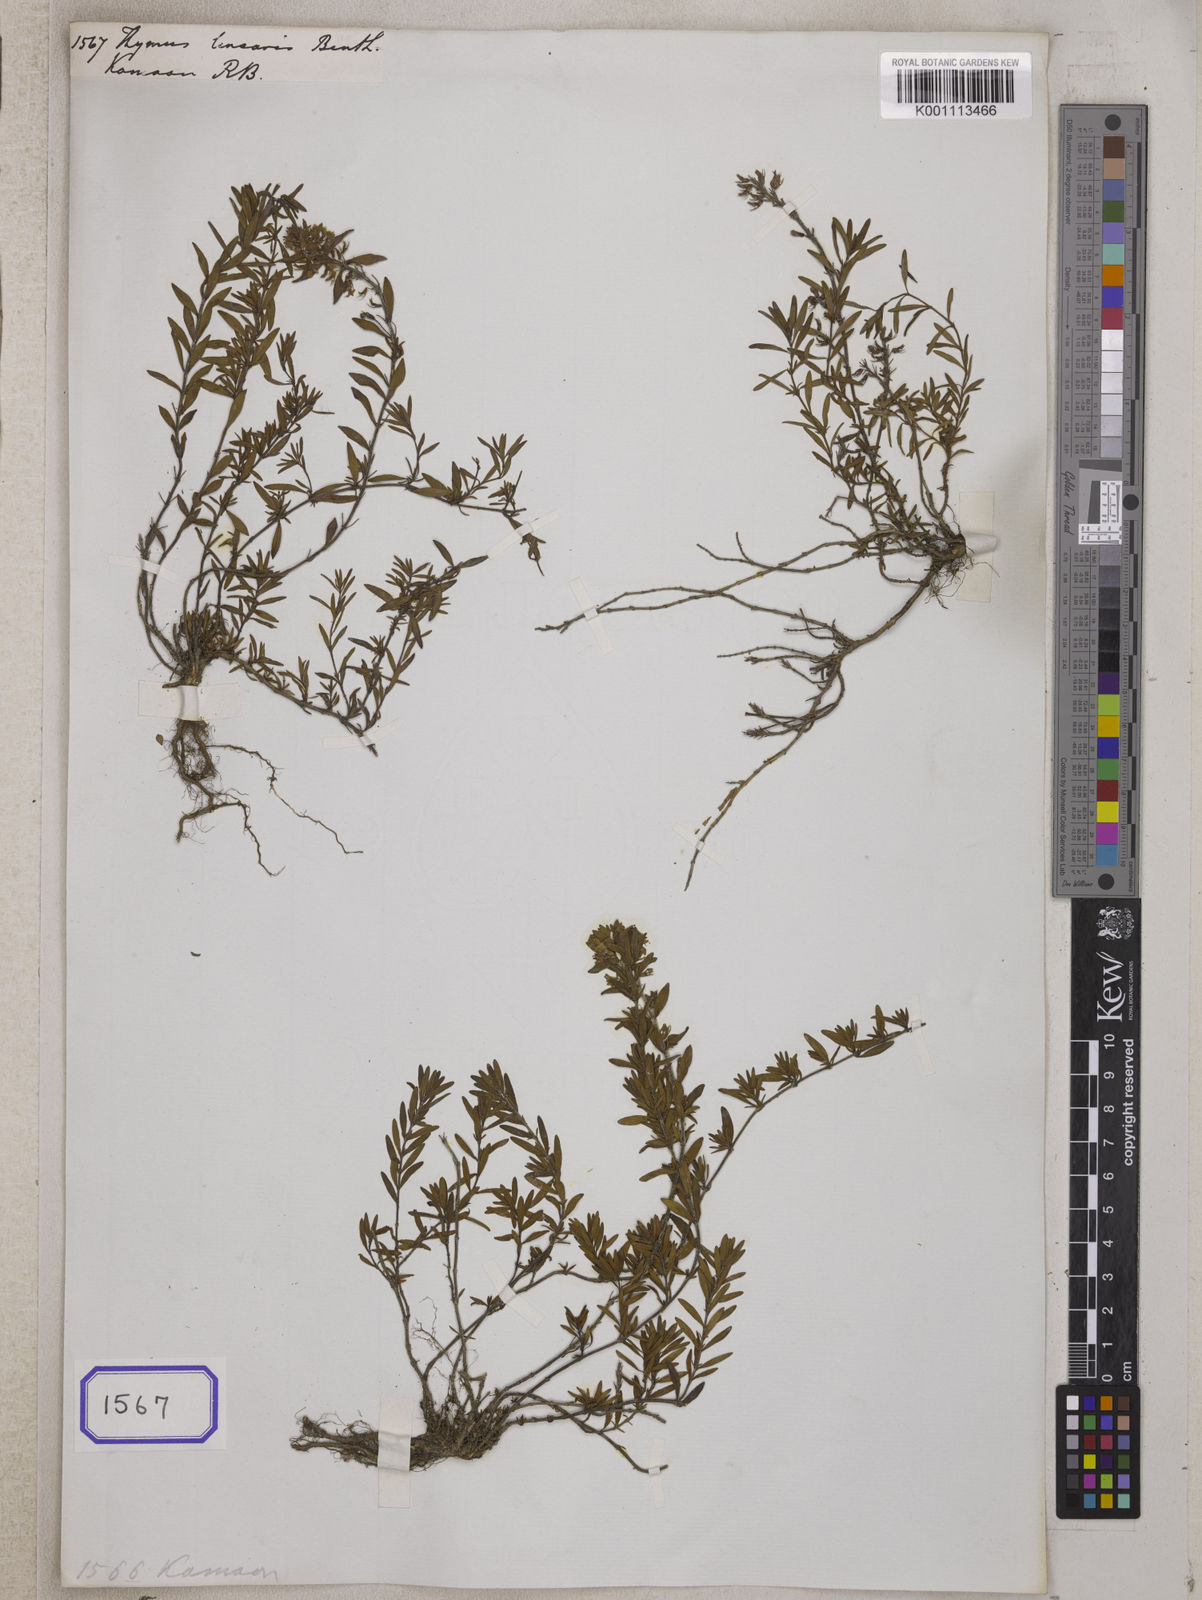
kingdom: Plantae
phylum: Tracheophyta
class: Magnoliopsida
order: Lamiales
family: Lamiaceae
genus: Thymus
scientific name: Thymus linearis
